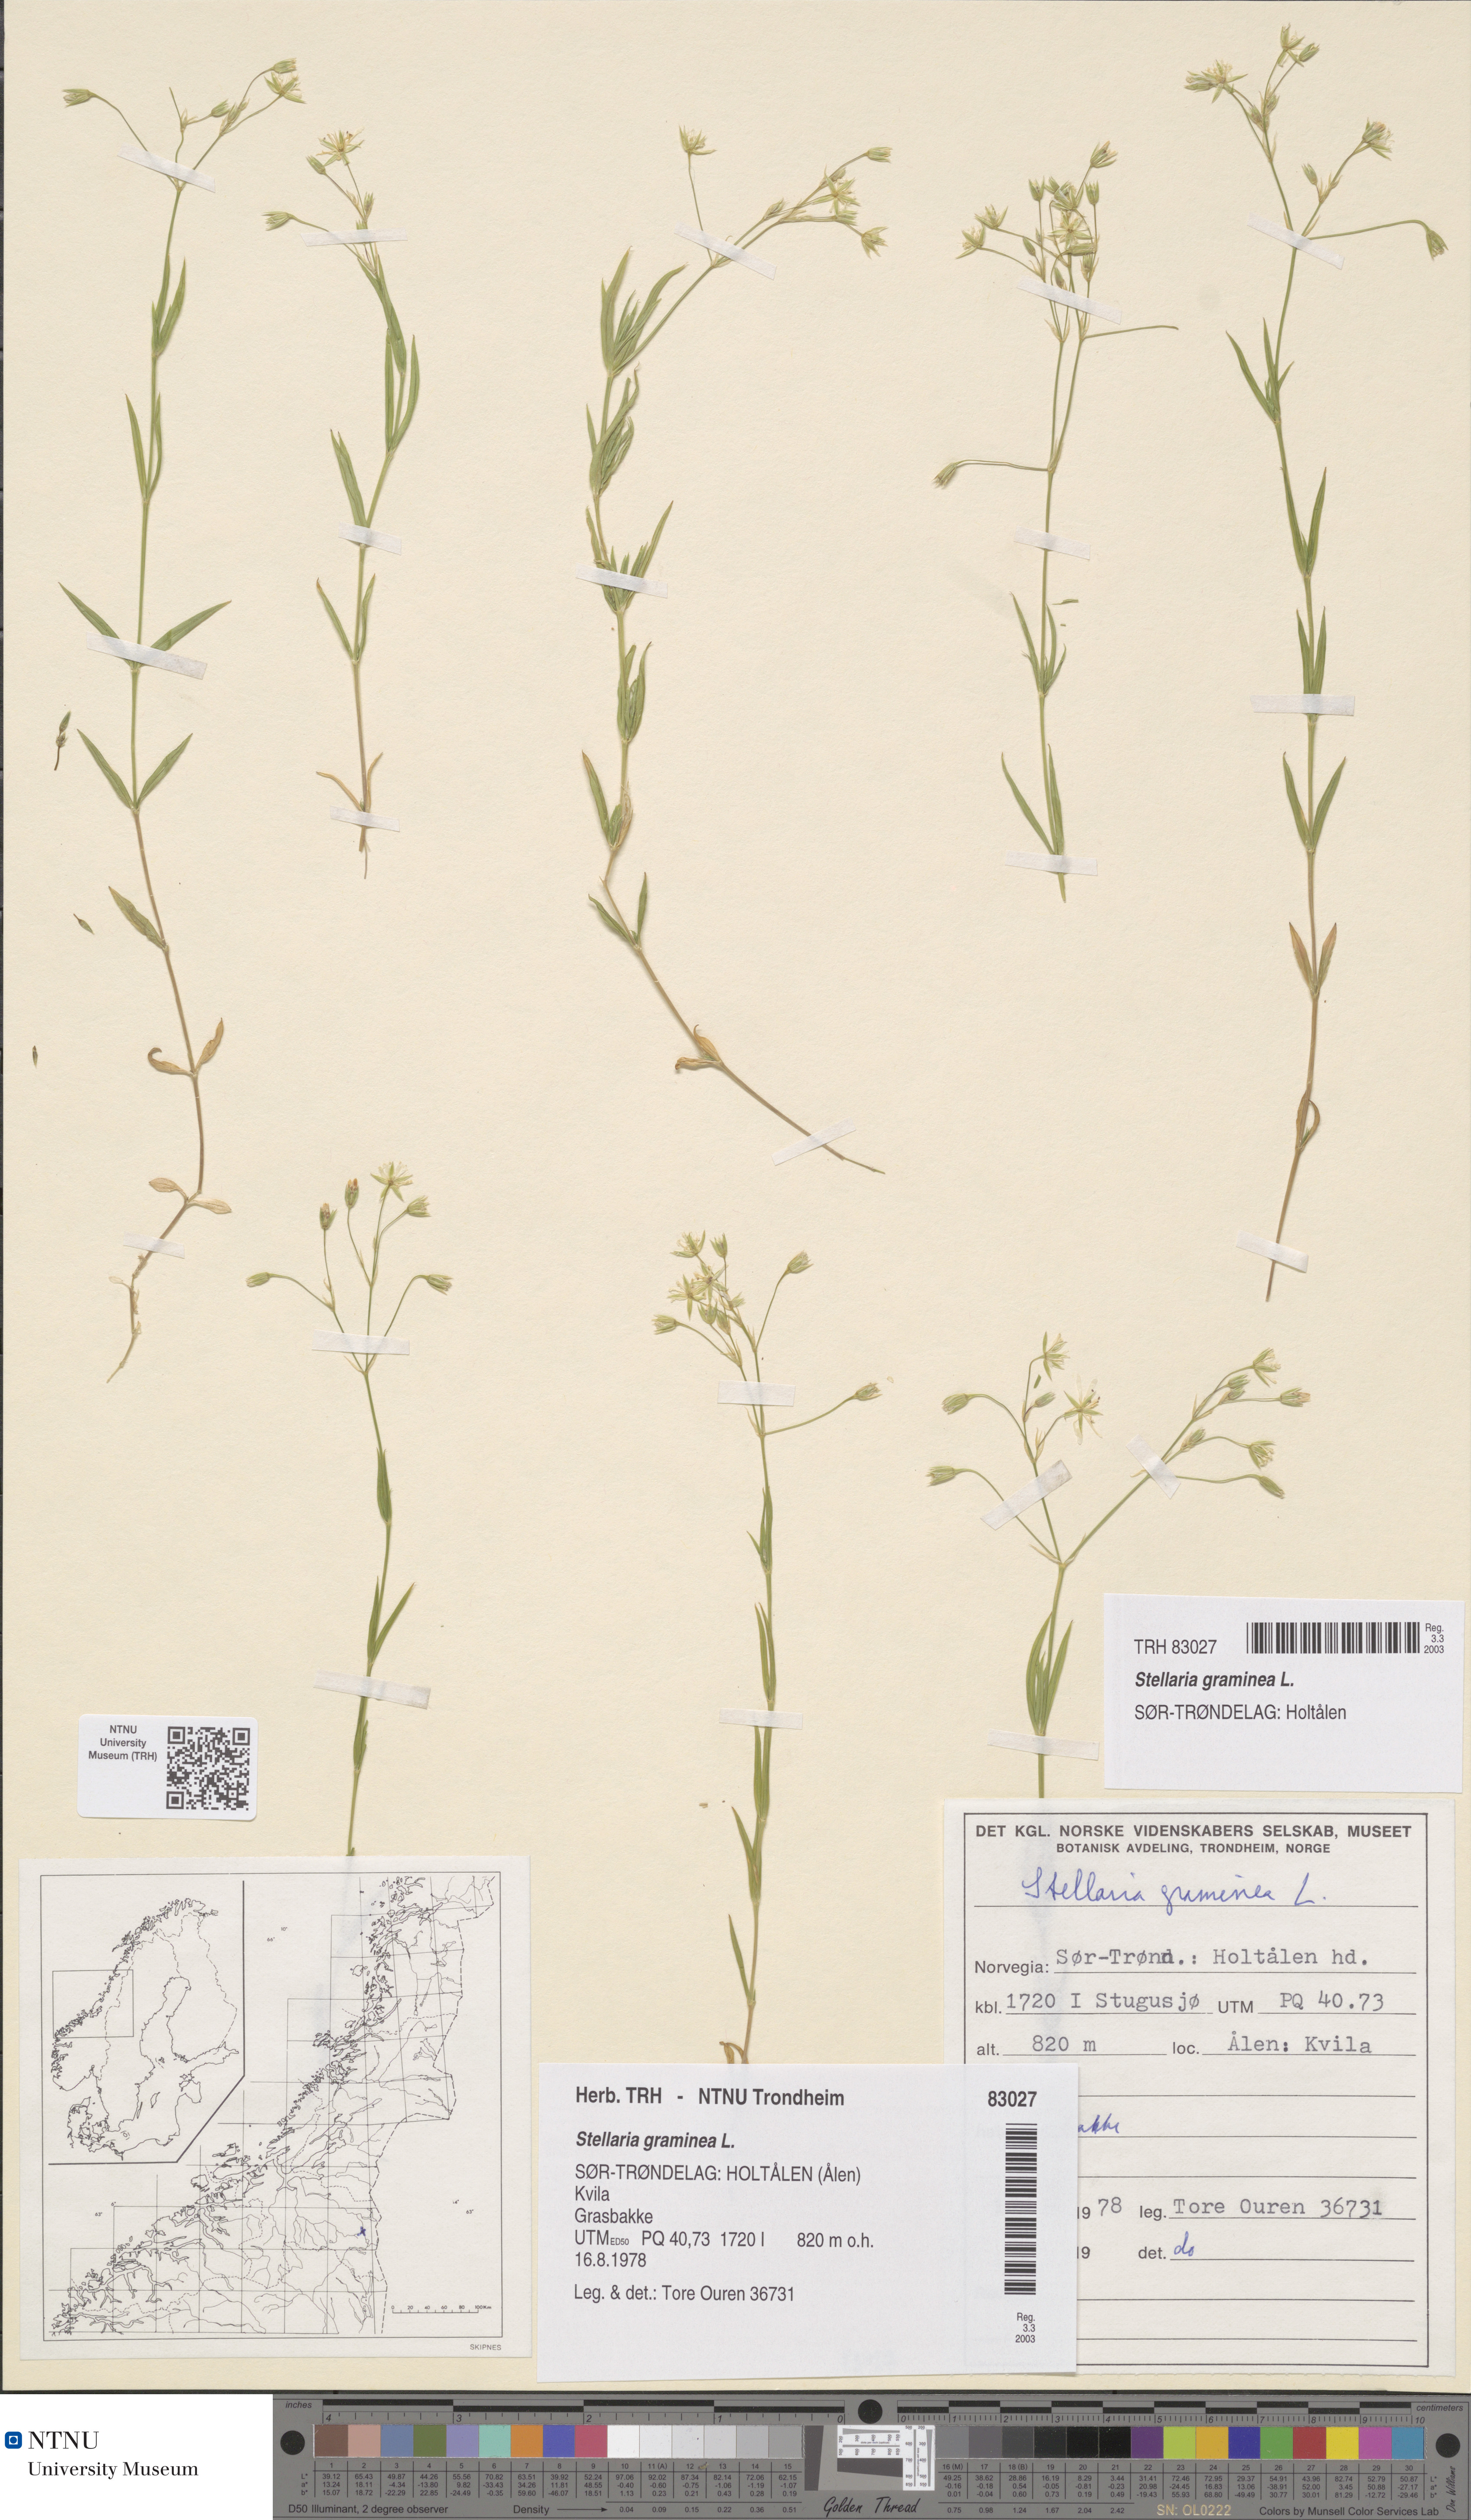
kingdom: Plantae
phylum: Tracheophyta
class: Magnoliopsida
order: Caryophyllales
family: Caryophyllaceae
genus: Stellaria
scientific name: Stellaria graminea
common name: Grass-like starwort
